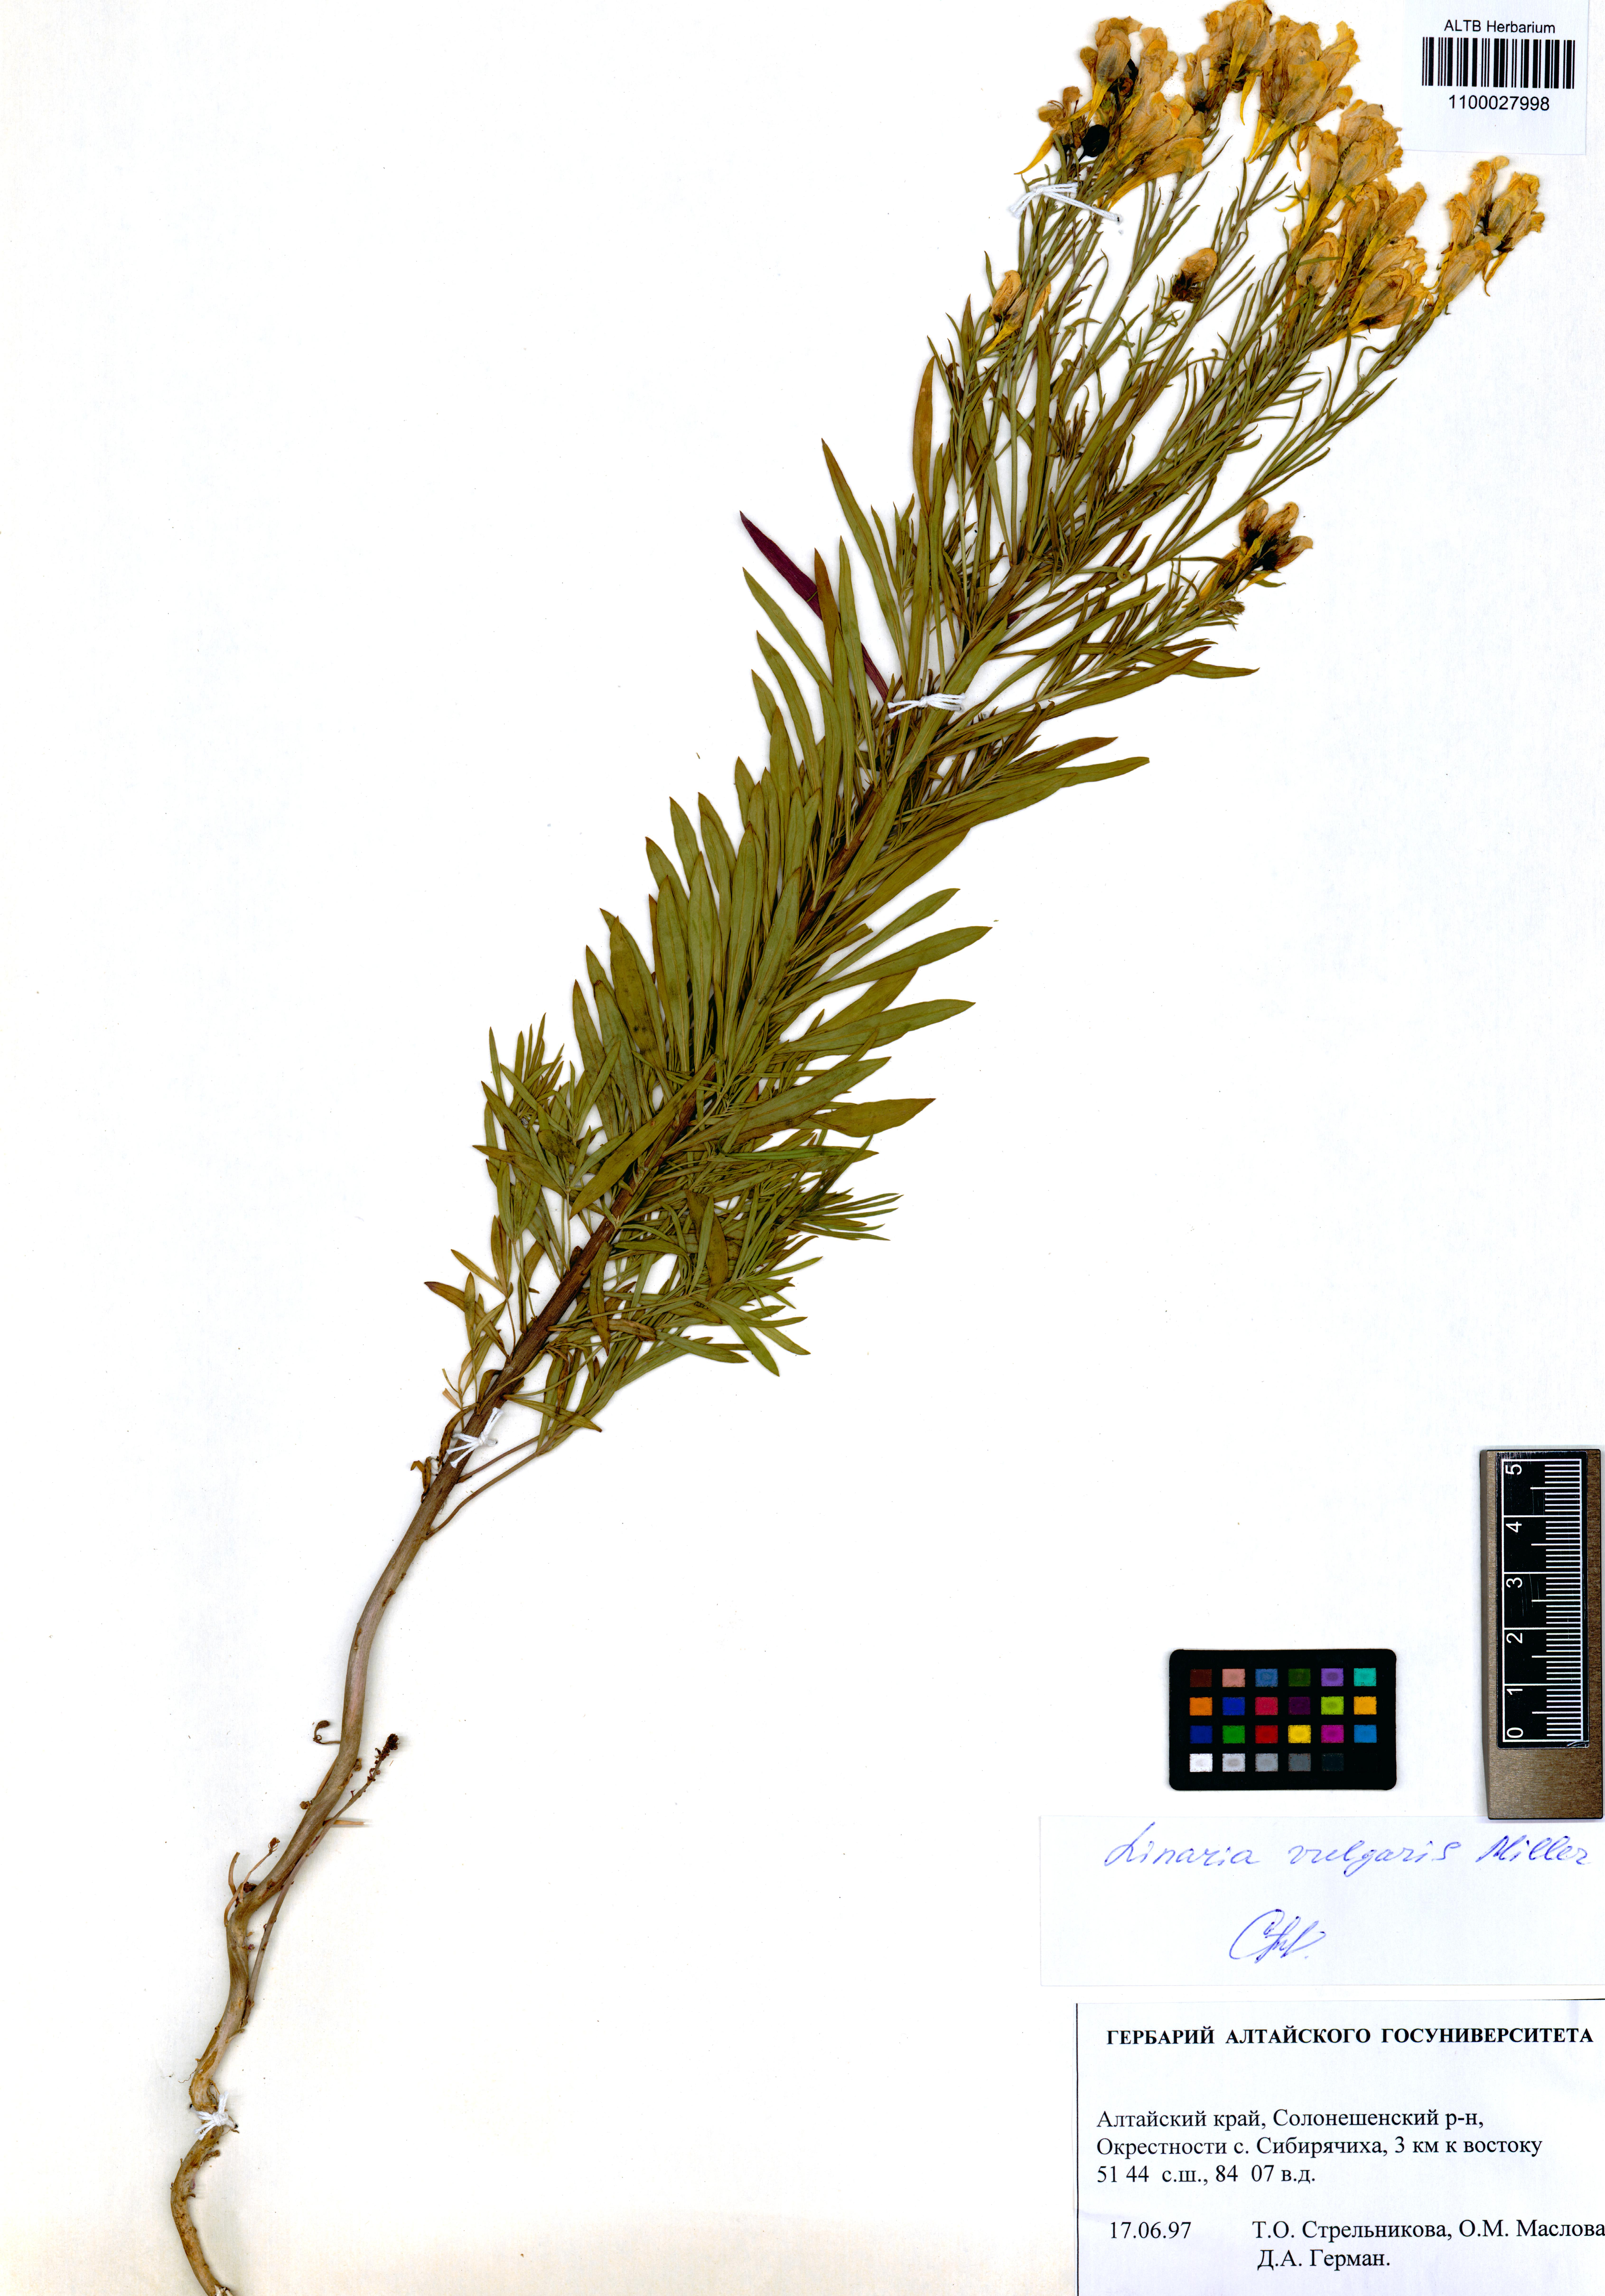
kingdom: Plantae
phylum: Tracheophyta
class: Magnoliopsida
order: Lamiales
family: Plantaginaceae
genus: Linaria
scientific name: Linaria vulgaris
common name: Butter and eggs
